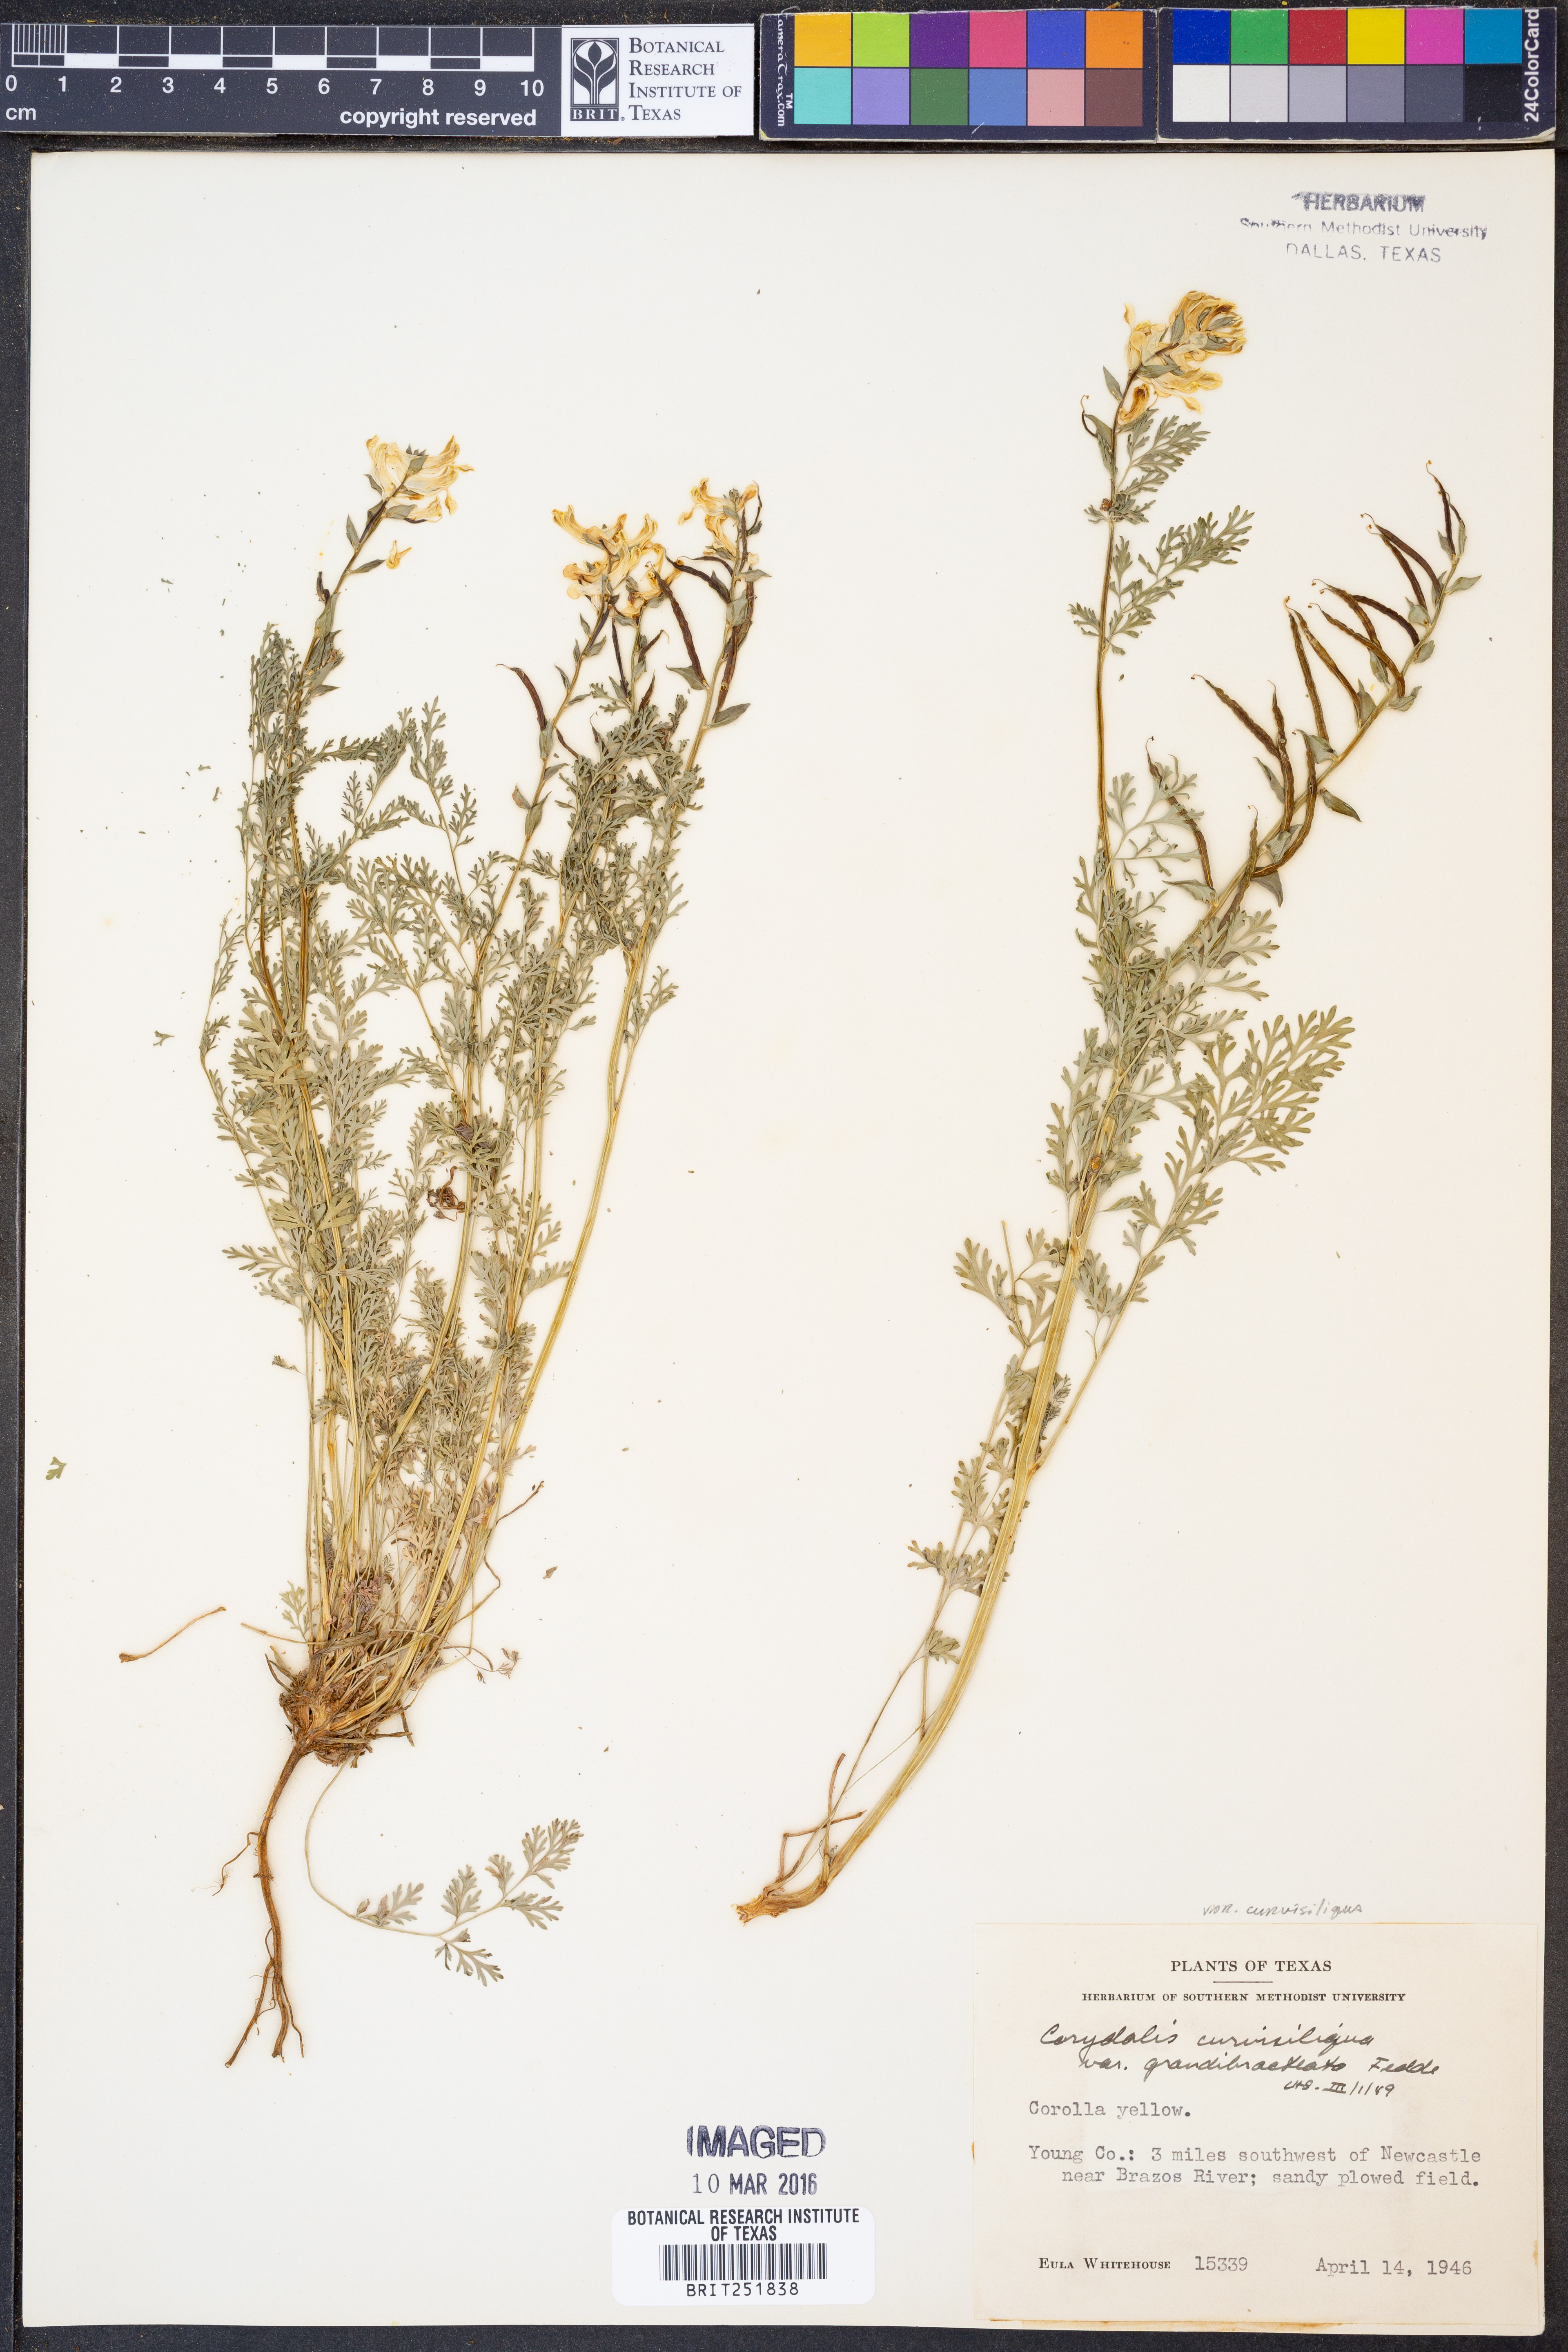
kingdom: Plantae
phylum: Tracheophyta
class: Magnoliopsida
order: Ranunculales
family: Papaveraceae
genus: Corydalis
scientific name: Corydalis curvisiliqua
